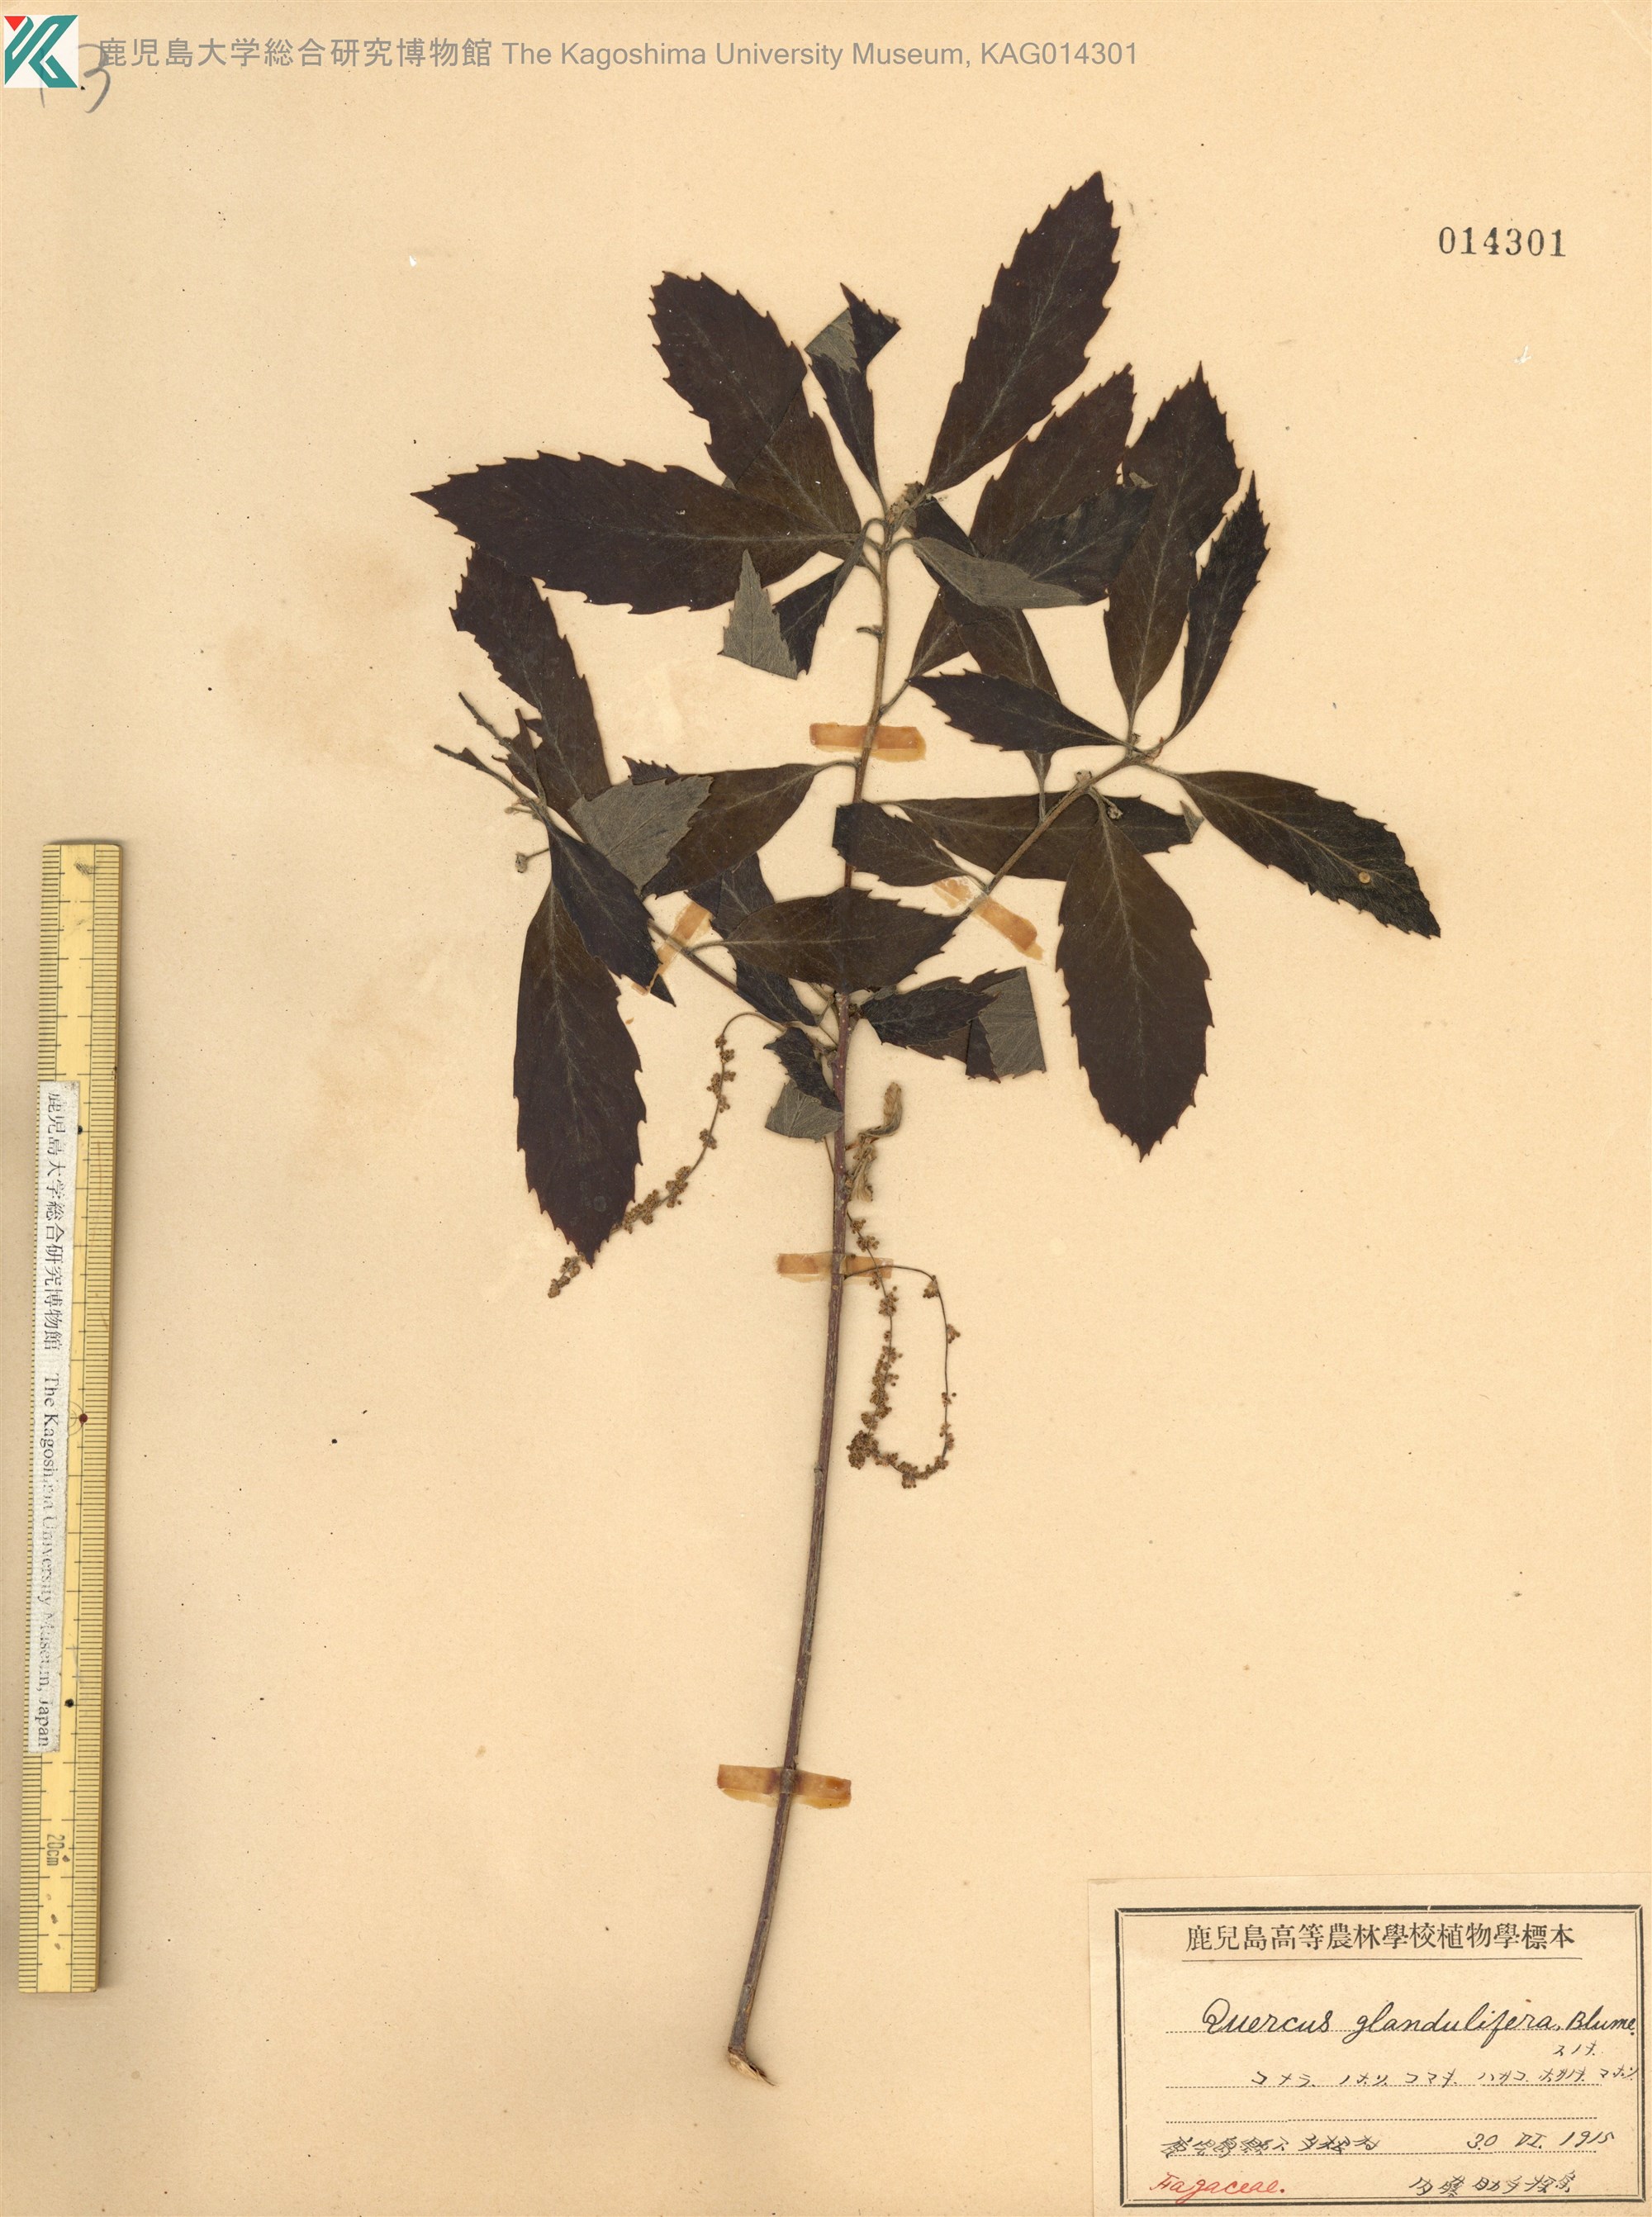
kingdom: Plantae
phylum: Tracheophyta
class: Magnoliopsida
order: Fagales
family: Fagaceae
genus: Quercus
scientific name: Quercus serrata
